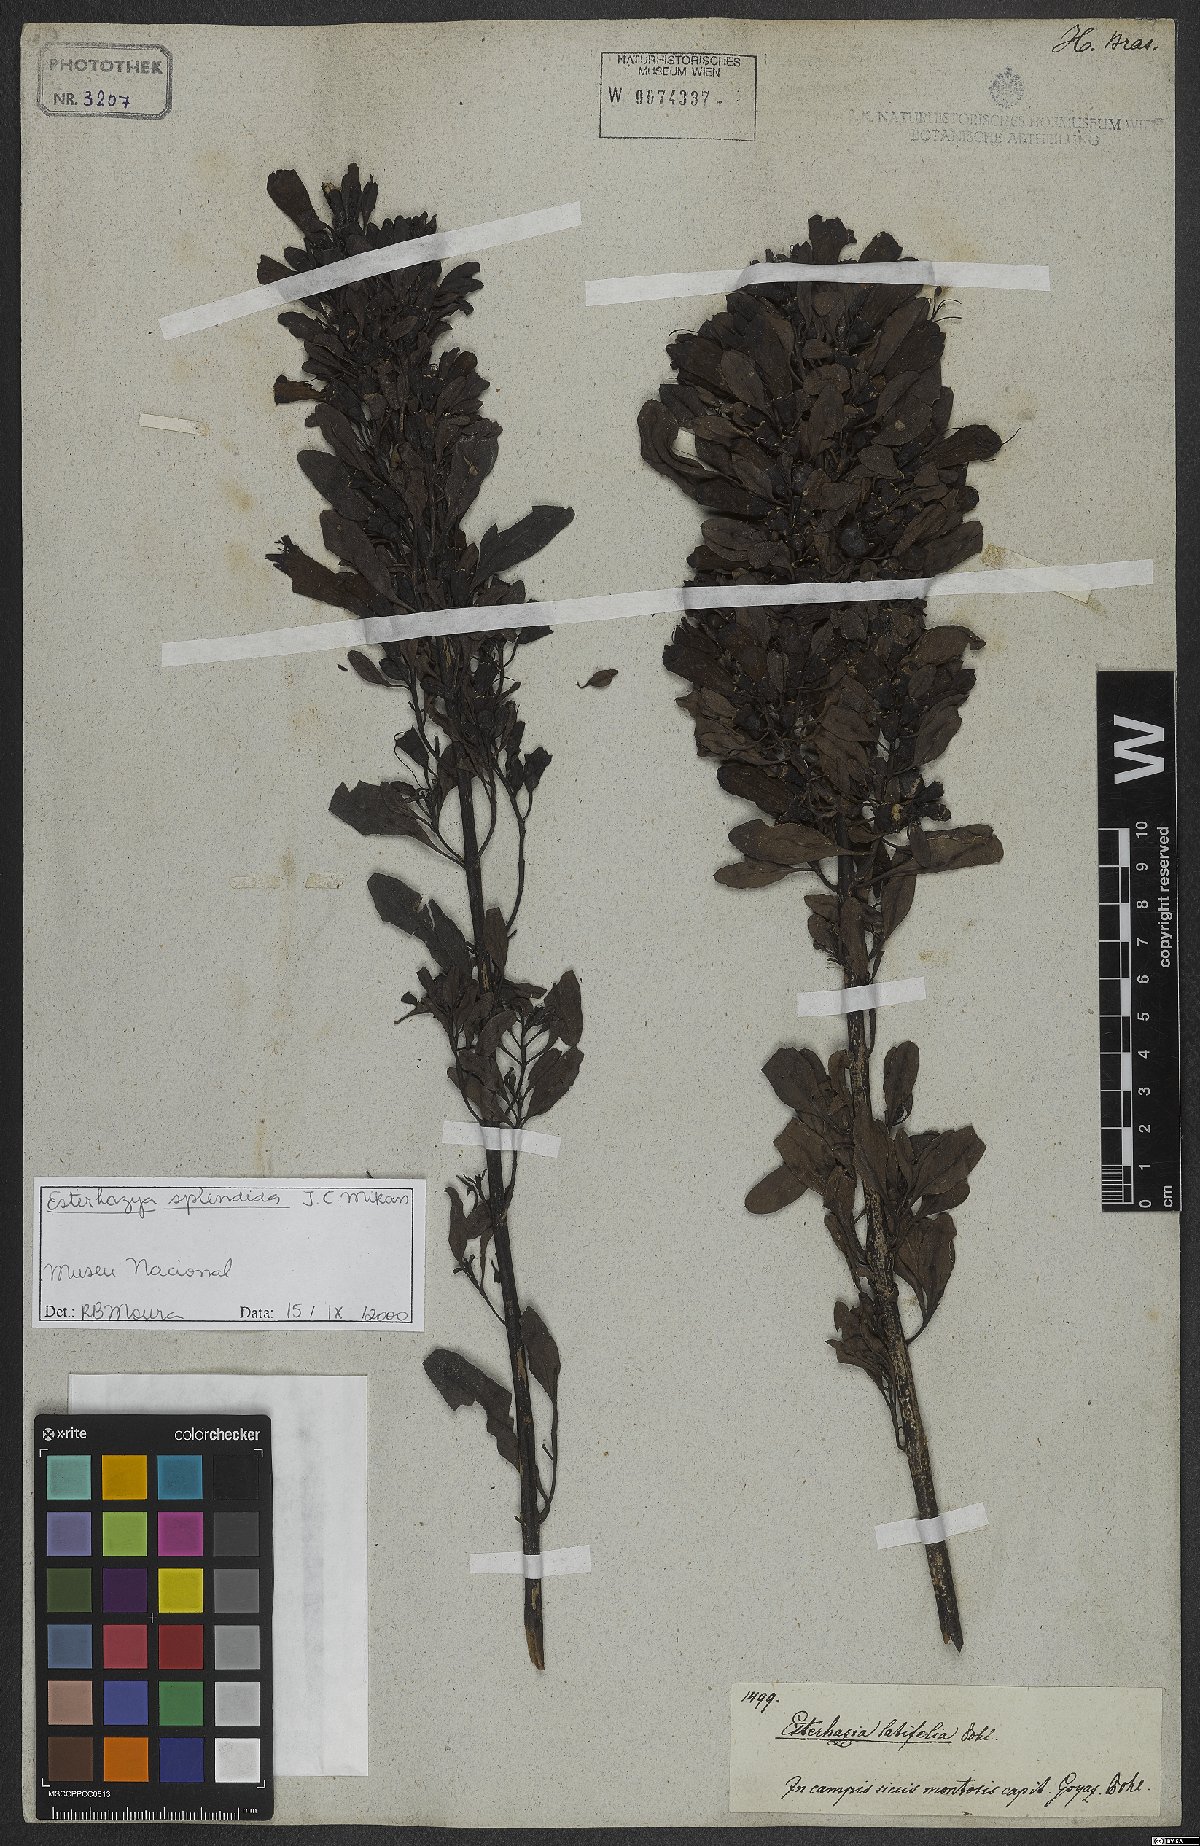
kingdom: Plantae
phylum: Tracheophyta
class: Magnoliopsida
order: Lamiales
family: Orobanchaceae
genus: Esterhazya
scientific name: Esterhazya splendida
